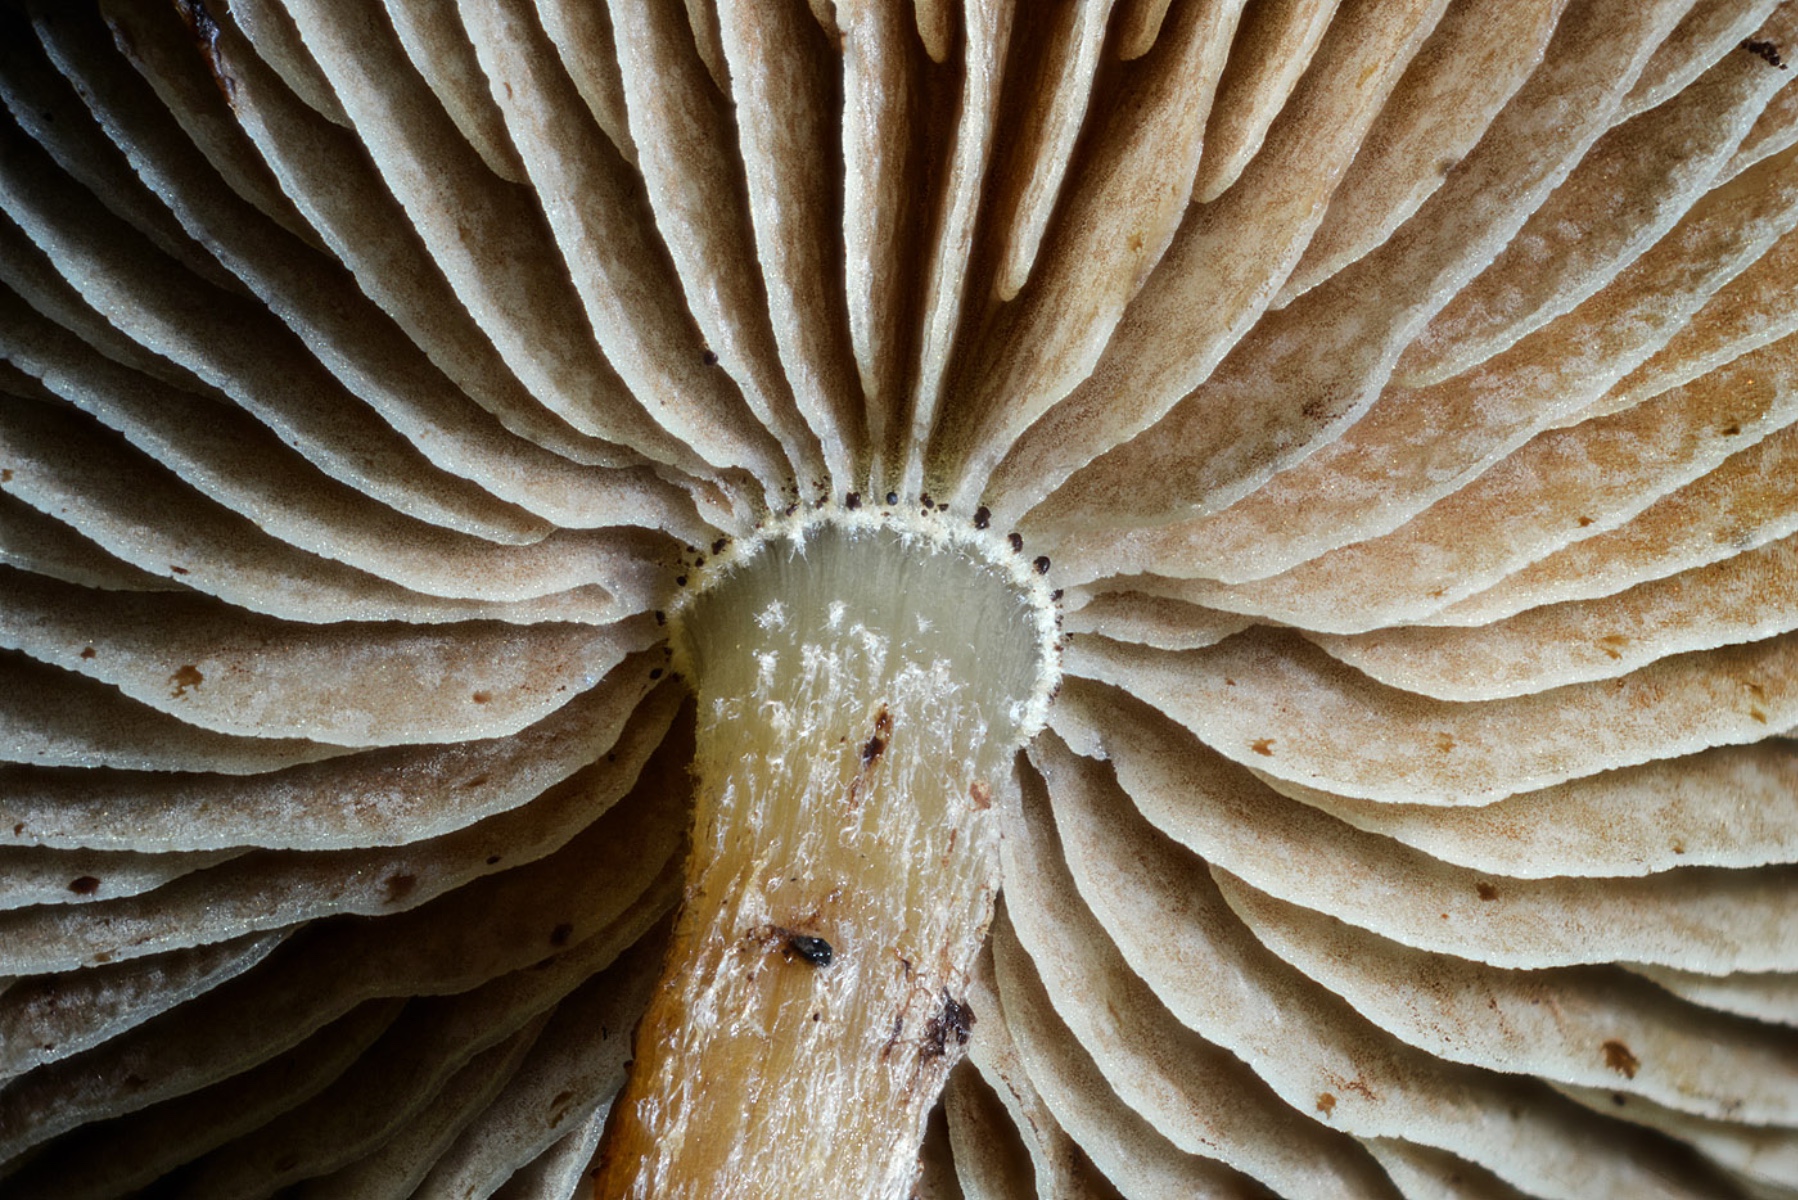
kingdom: Fungi
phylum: Basidiomycota
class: Agaricomycetes
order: Agaricales
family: Strophariaceae
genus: Pholiota
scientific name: Pholiota scamba
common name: dværg-skælhat
